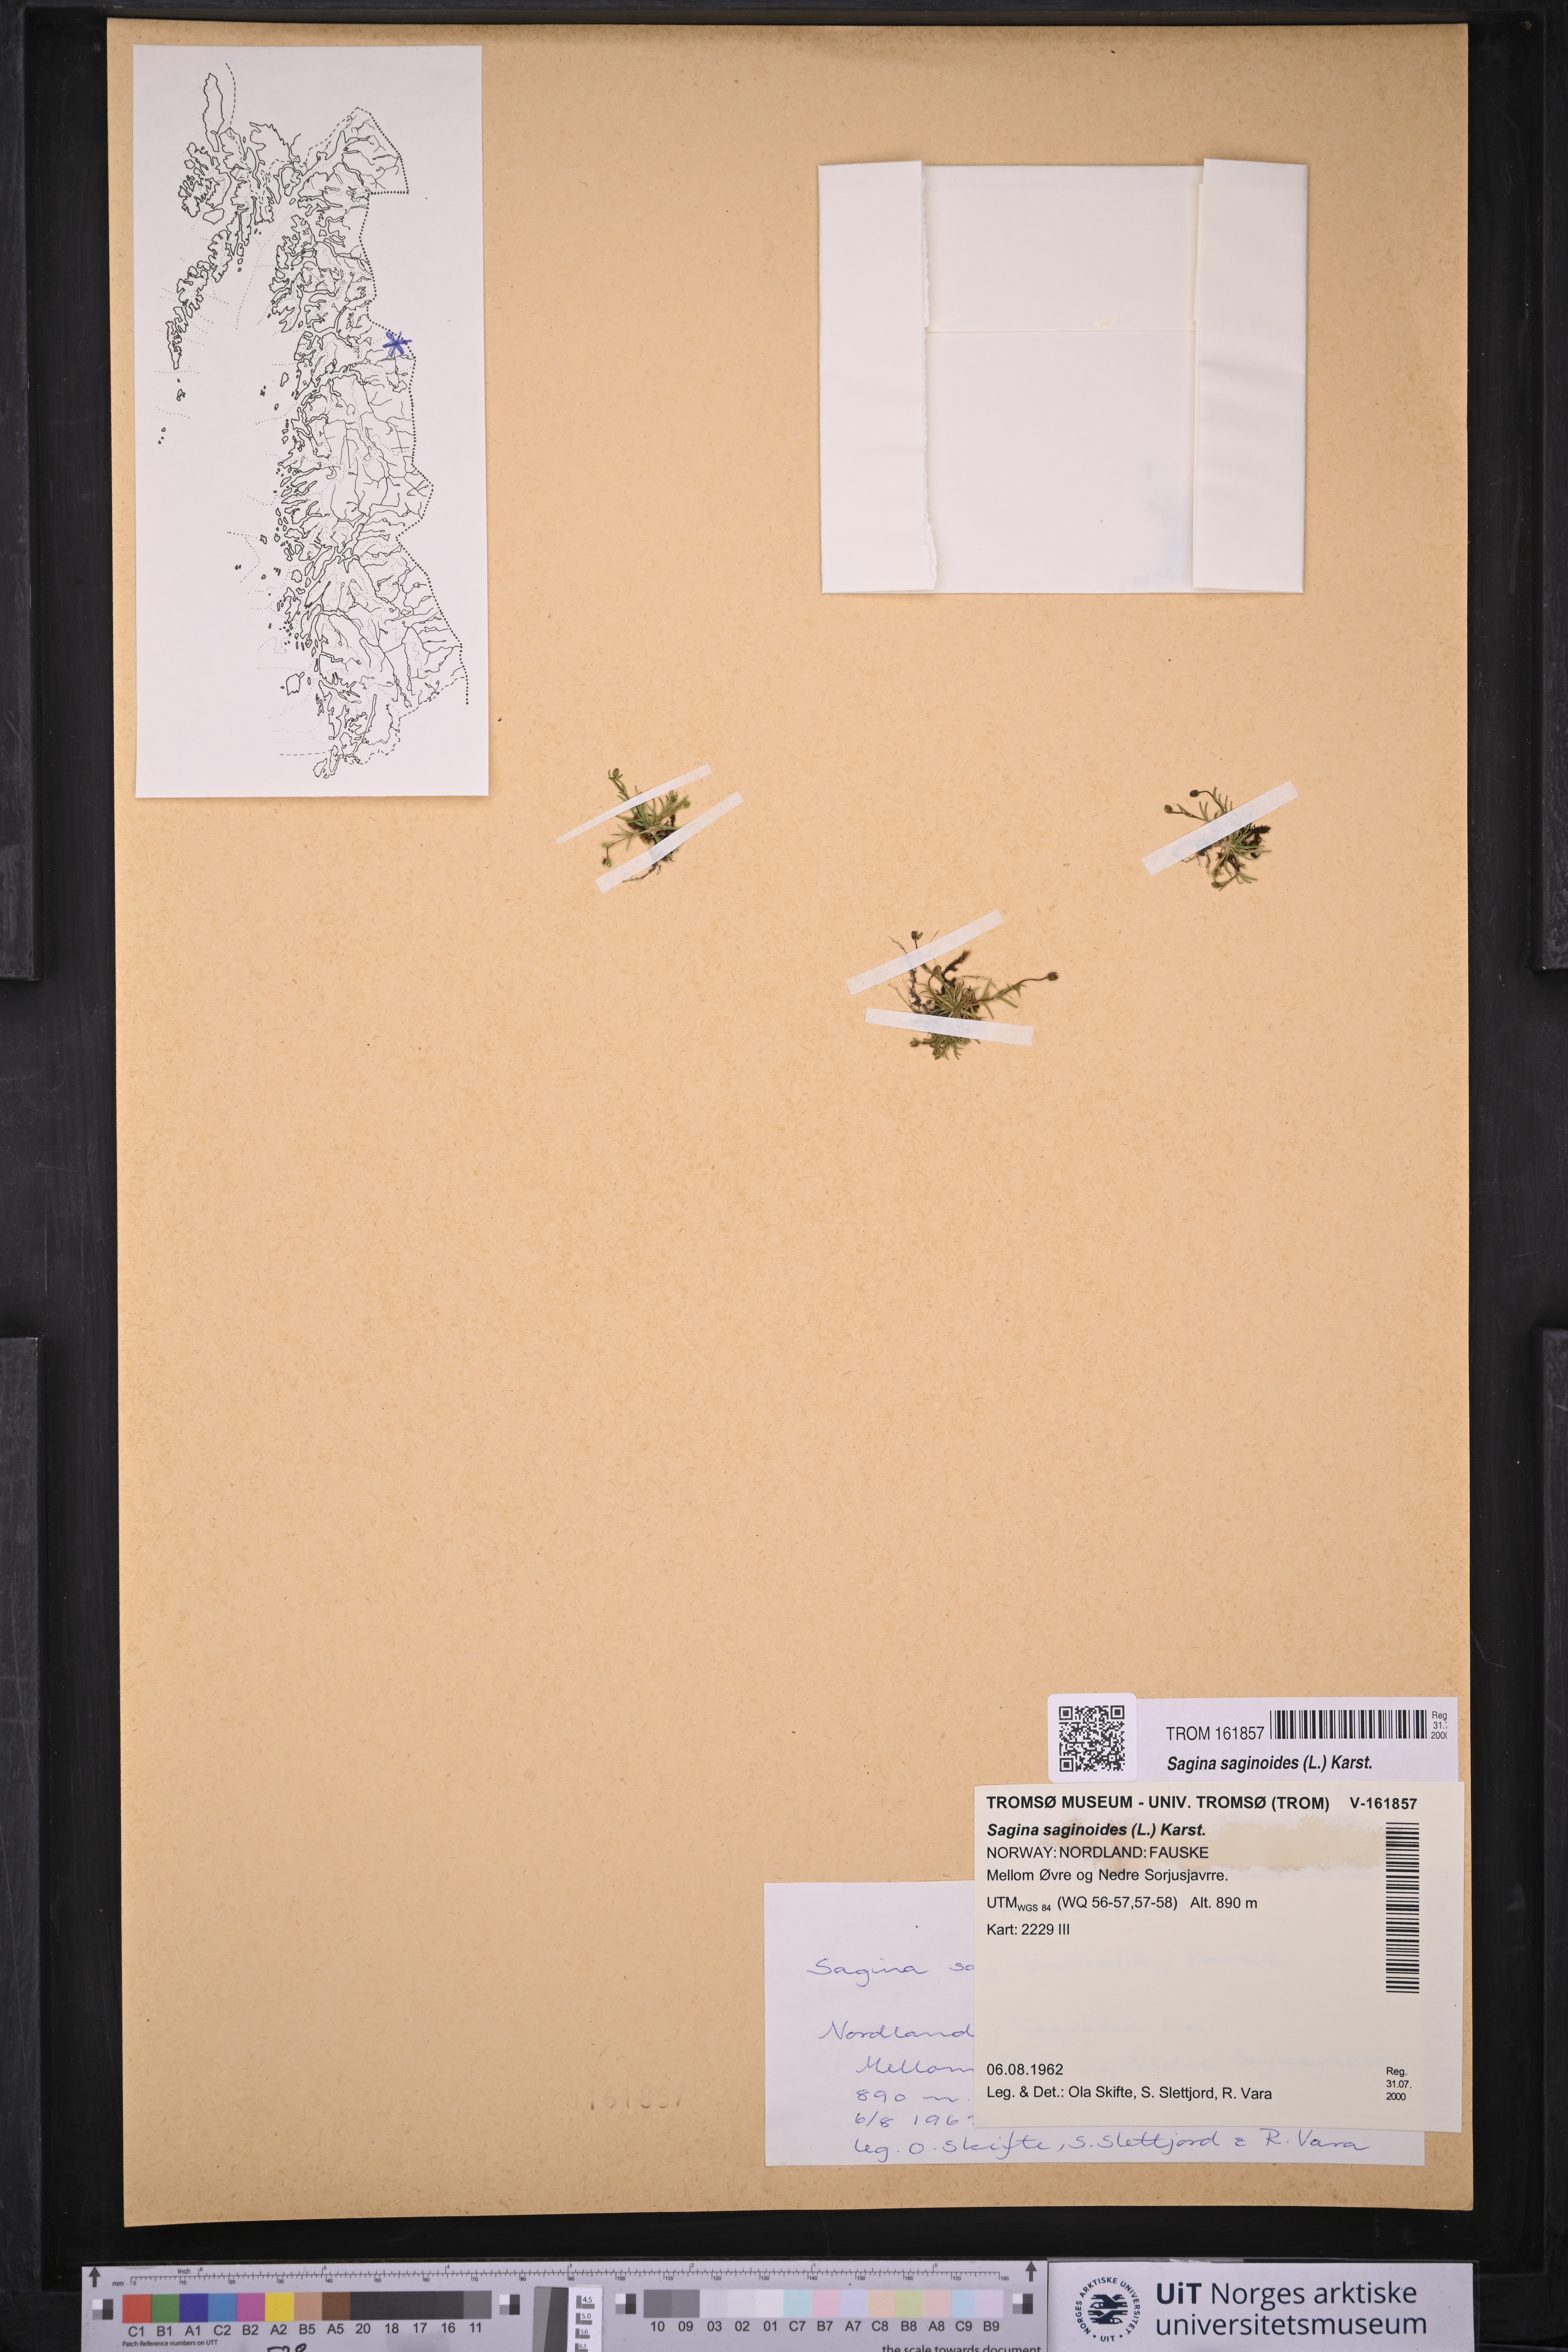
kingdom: Plantae
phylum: Tracheophyta
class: Magnoliopsida
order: Caryophyllales
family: Caryophyllaceae
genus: Sagina
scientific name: Sagina saginoides
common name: Alpine pearlwort
